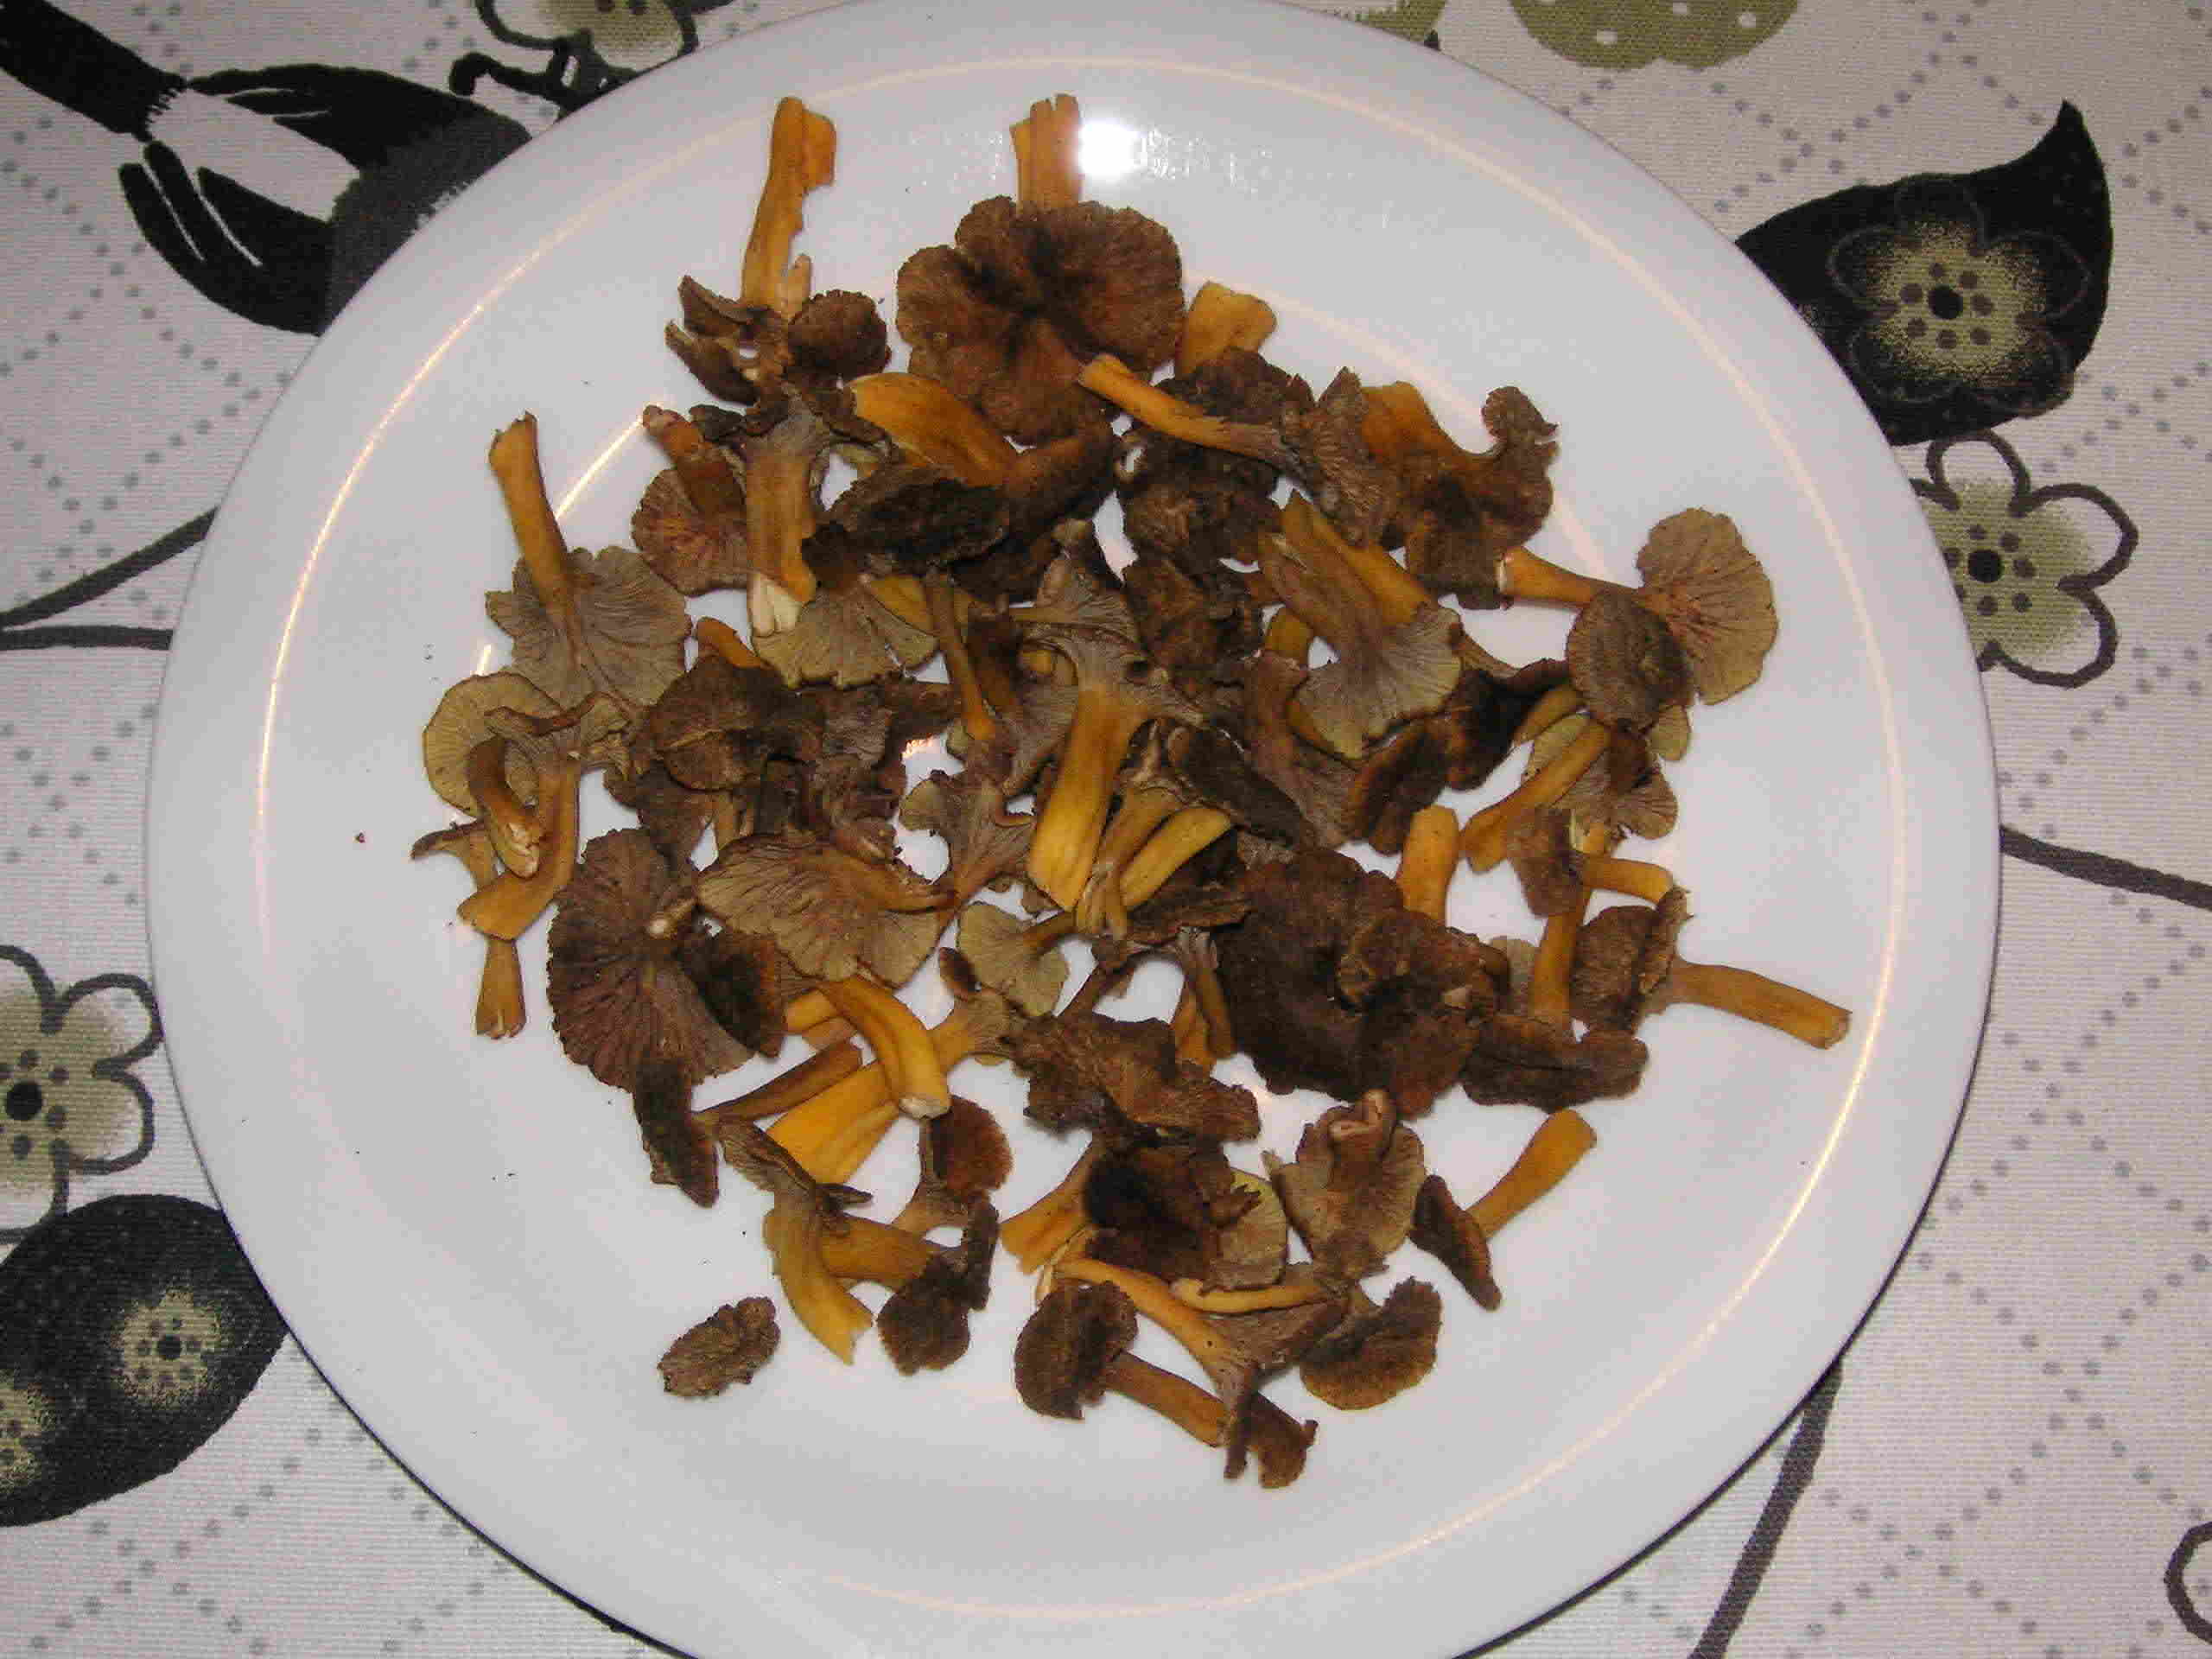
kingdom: Fungi
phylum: Basidiomycota
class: Agaricomycetes
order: Cantharellales
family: Hydnaceae
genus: Craterellus
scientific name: Craterellus tubaeformis
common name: tragt-kantarel
